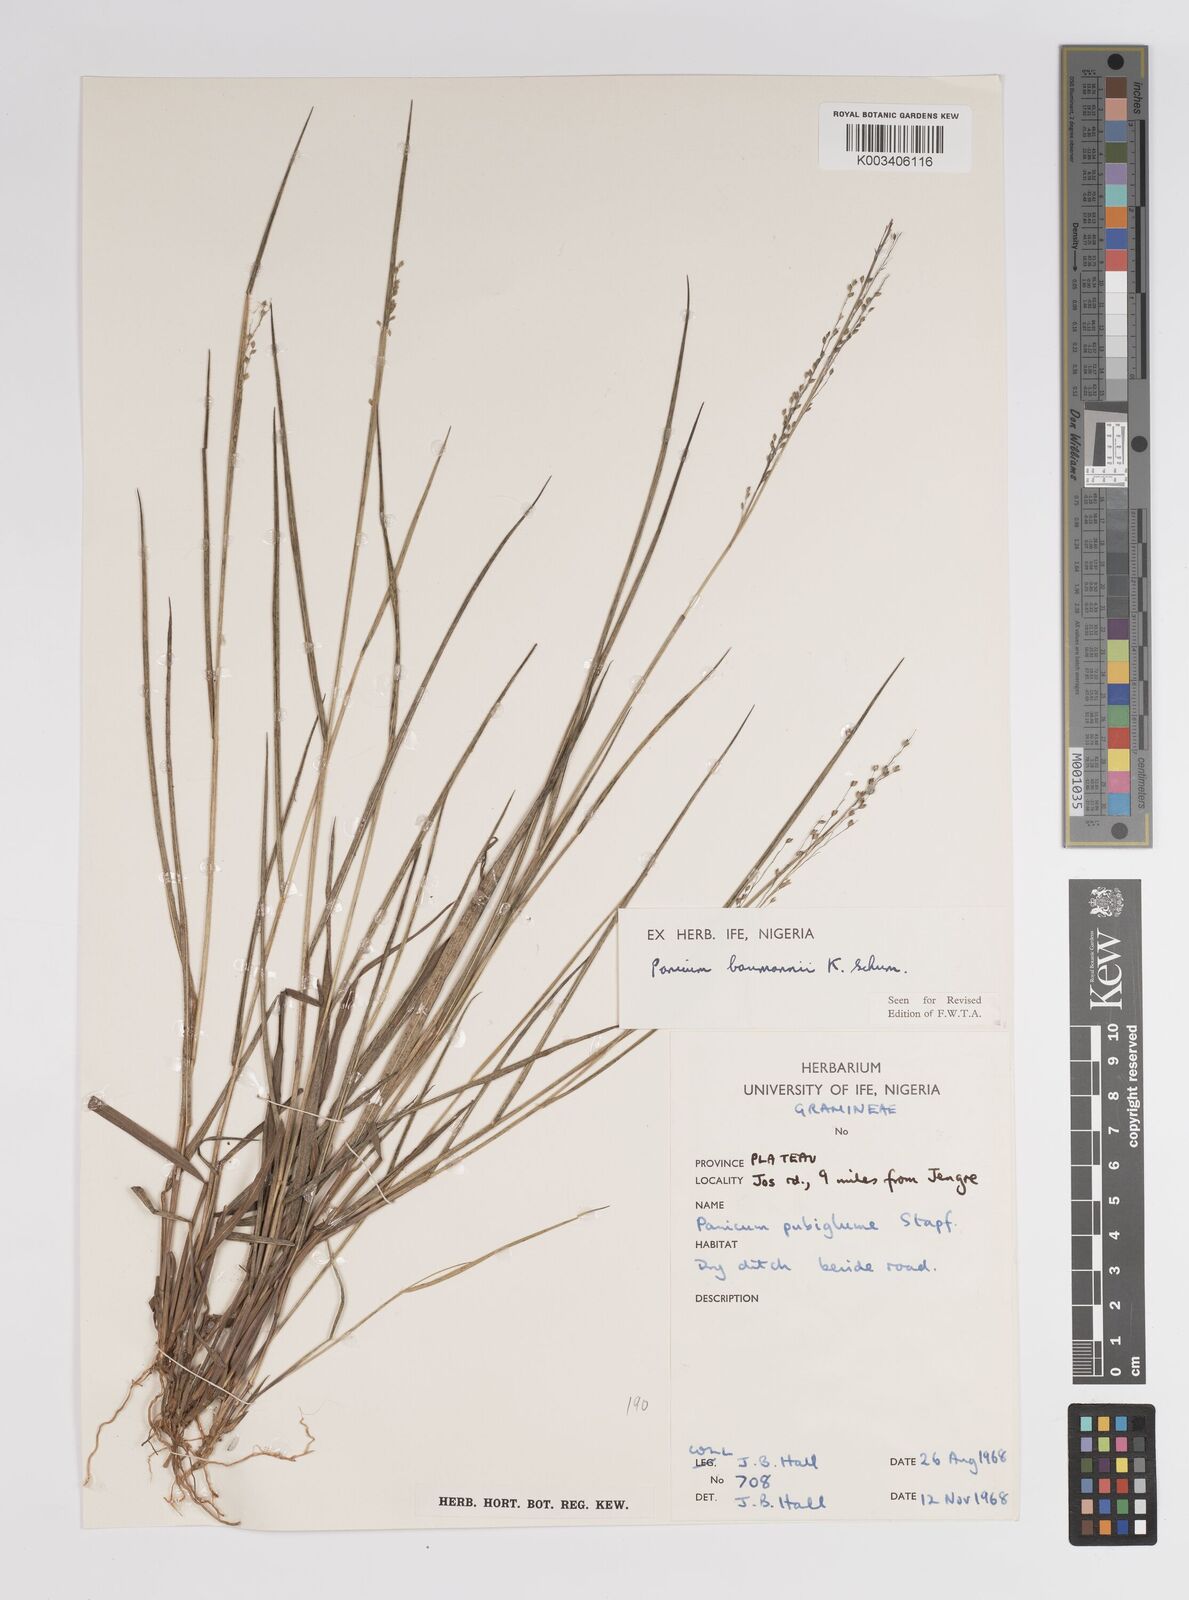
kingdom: Plantae
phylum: Tracheophyta
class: Liliopsida
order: Poales
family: Poaceae
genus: Trichanthecium
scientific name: Trichanthecium nervatum
